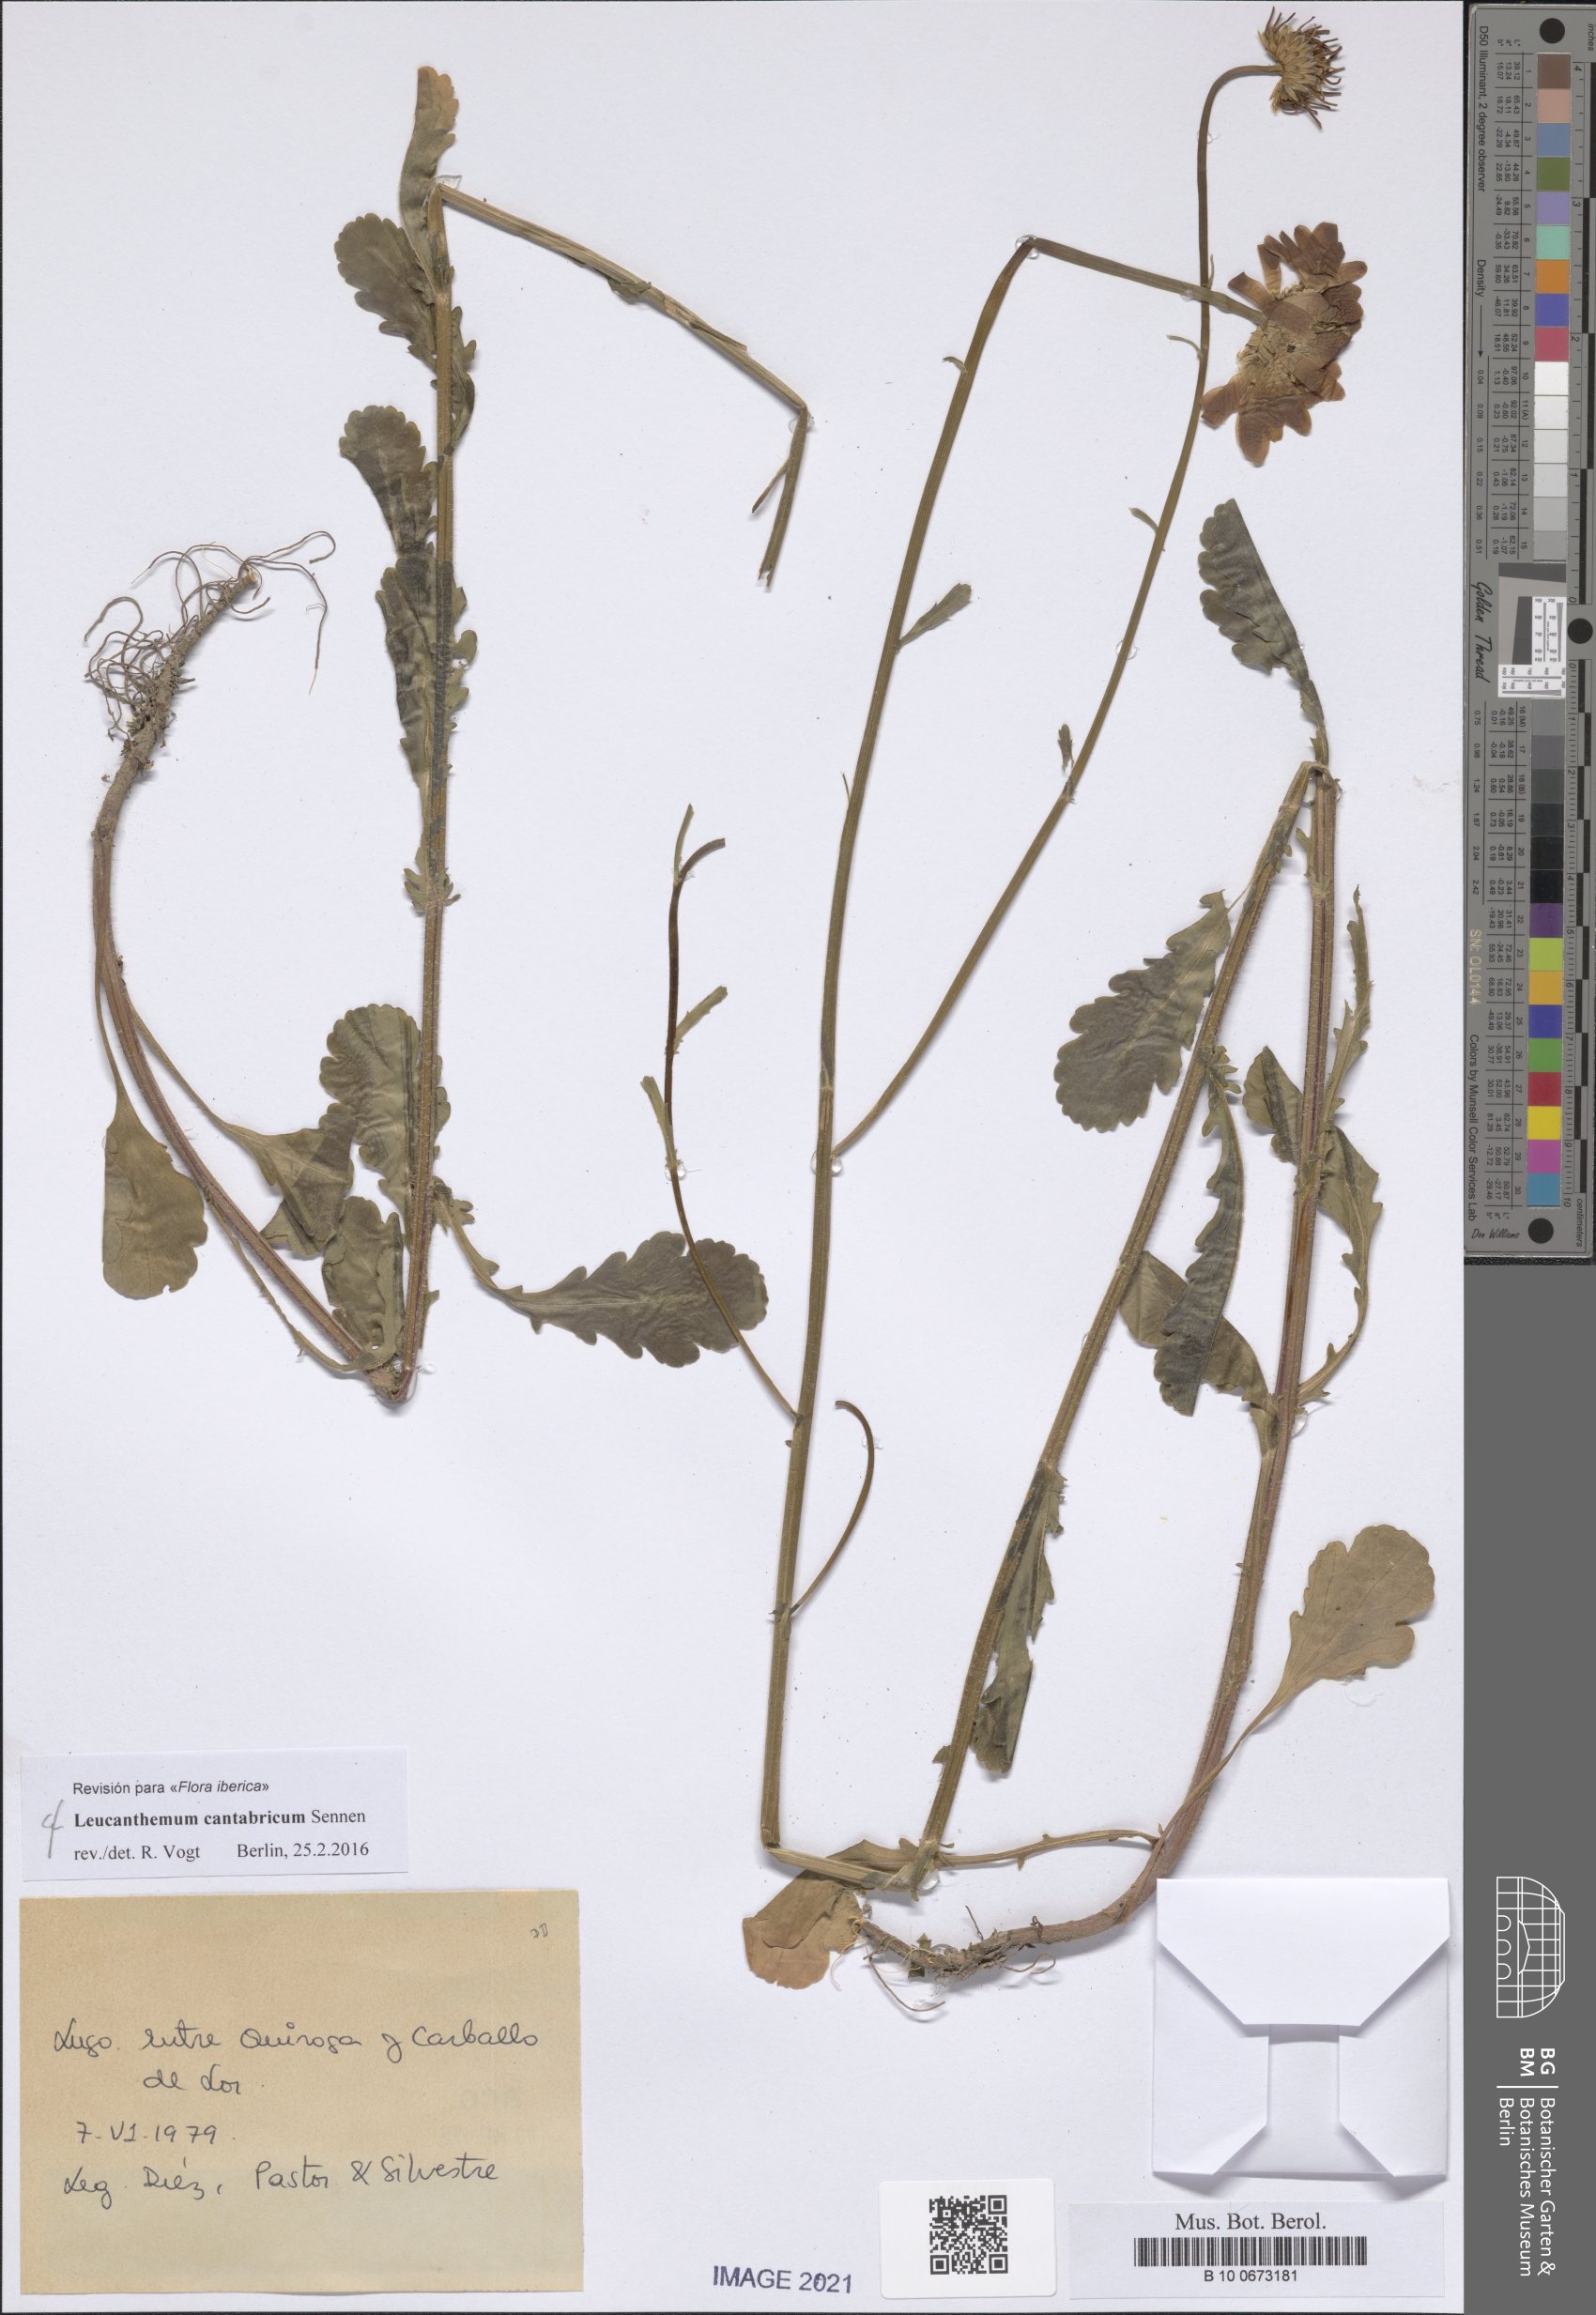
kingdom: Plantae
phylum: Tracheophyta
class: Magnoliopsida
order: Asterales
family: Asteraceae
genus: Leucanthemum
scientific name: Leucanthemum cantabricum
